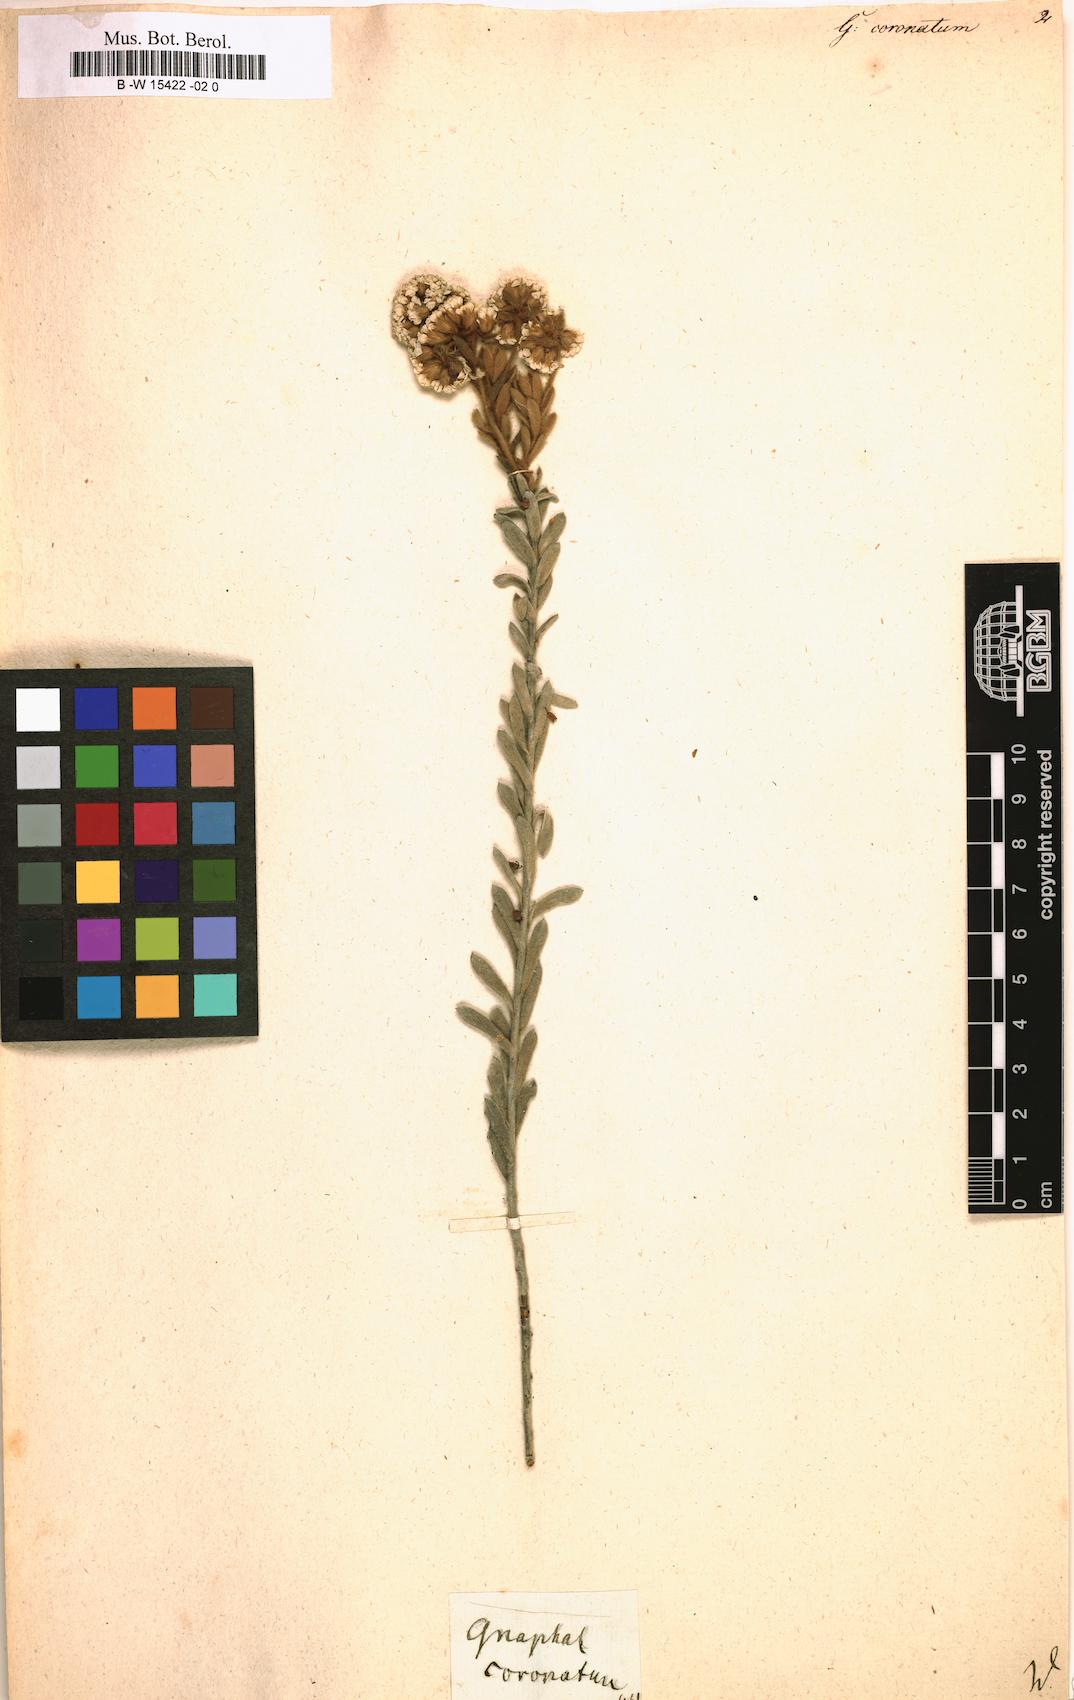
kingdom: Plantae
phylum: Tracheophyta
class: Magnoliopsida
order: Asterales
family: Asteraceae
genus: Petalacte
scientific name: Petalacte coronata
